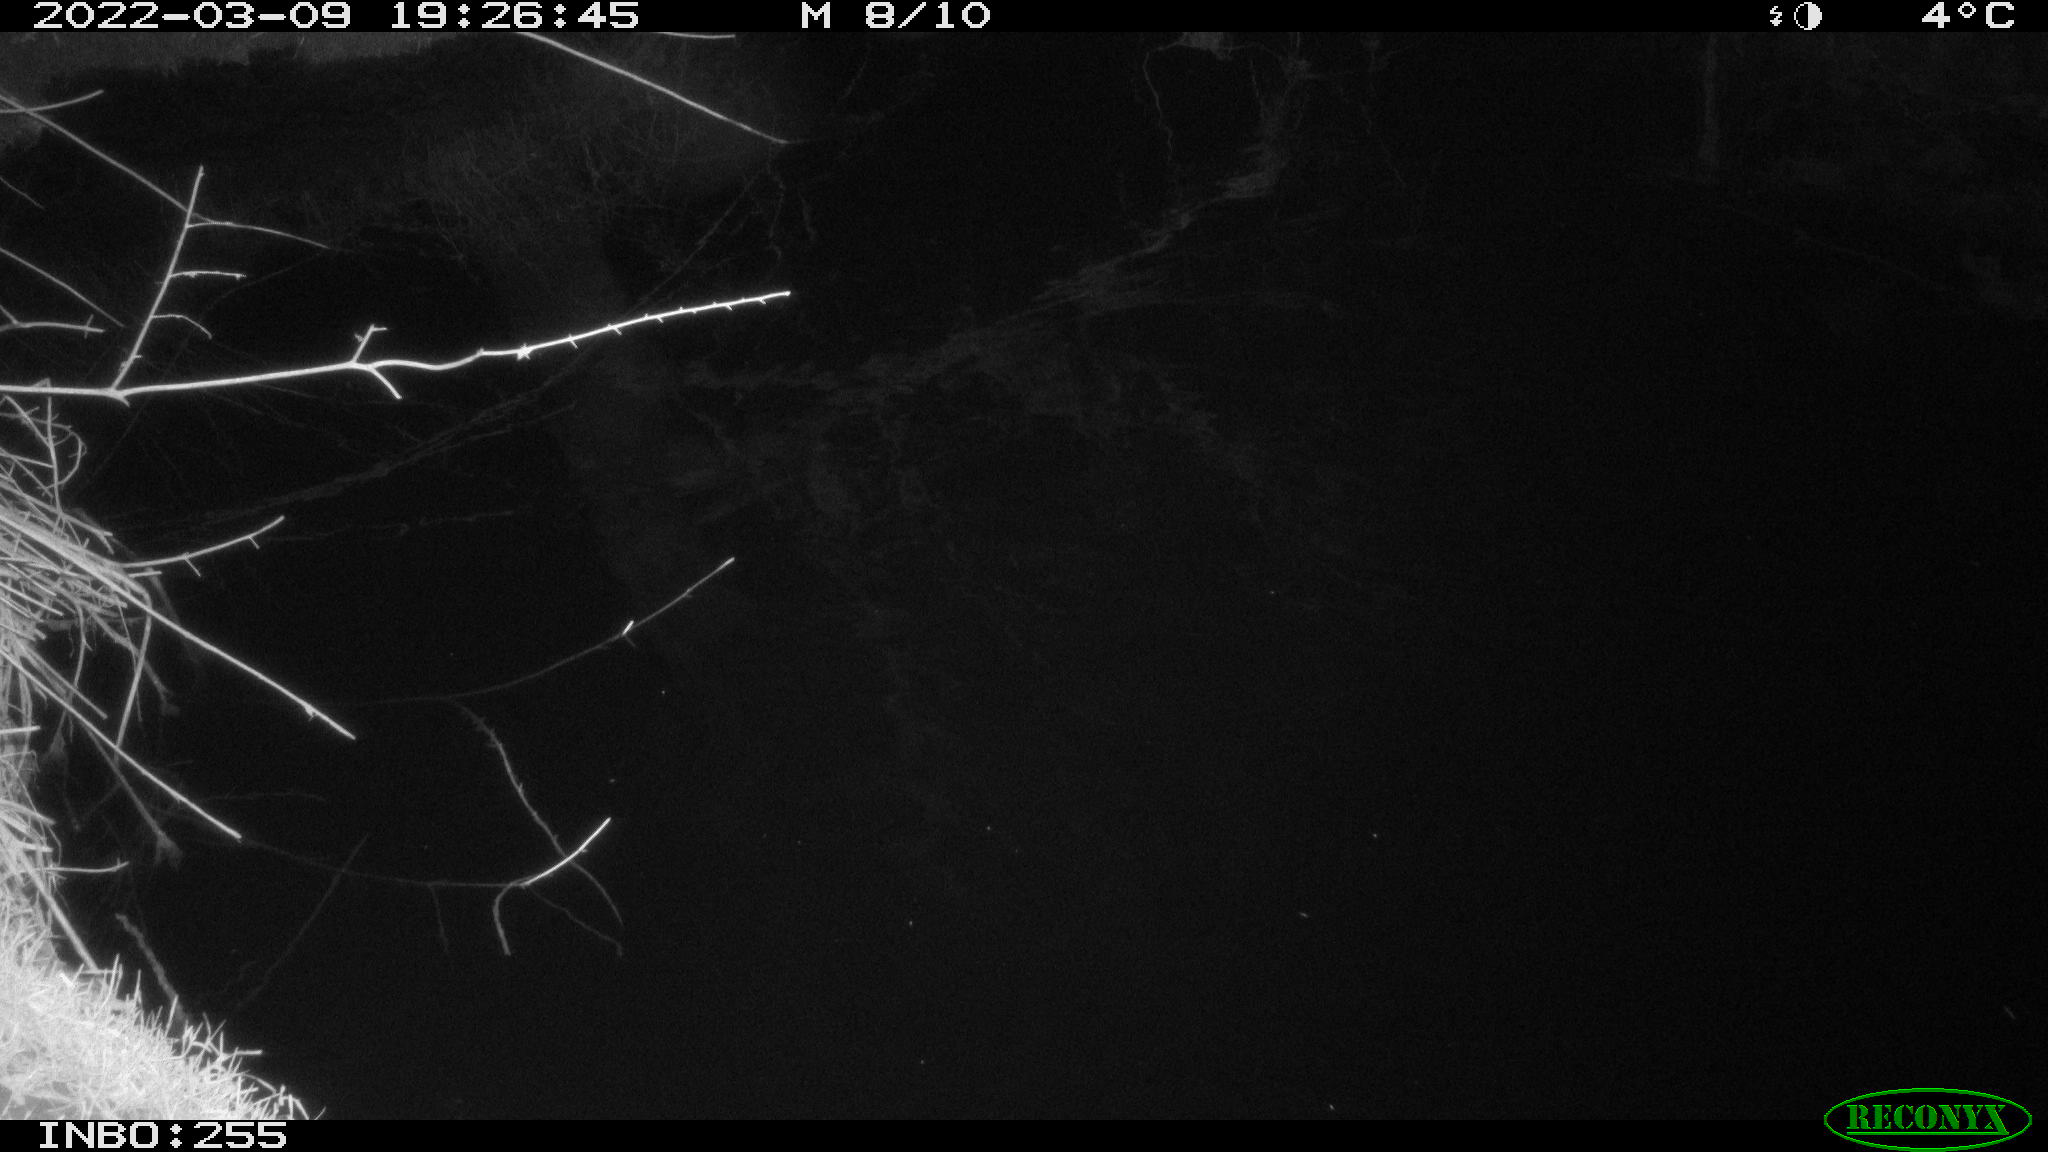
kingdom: Animalia
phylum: Chordata
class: Mammalia
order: Rodentia
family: Muridae
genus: Rattus
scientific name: Rattus norvegicus
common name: Brown rat
